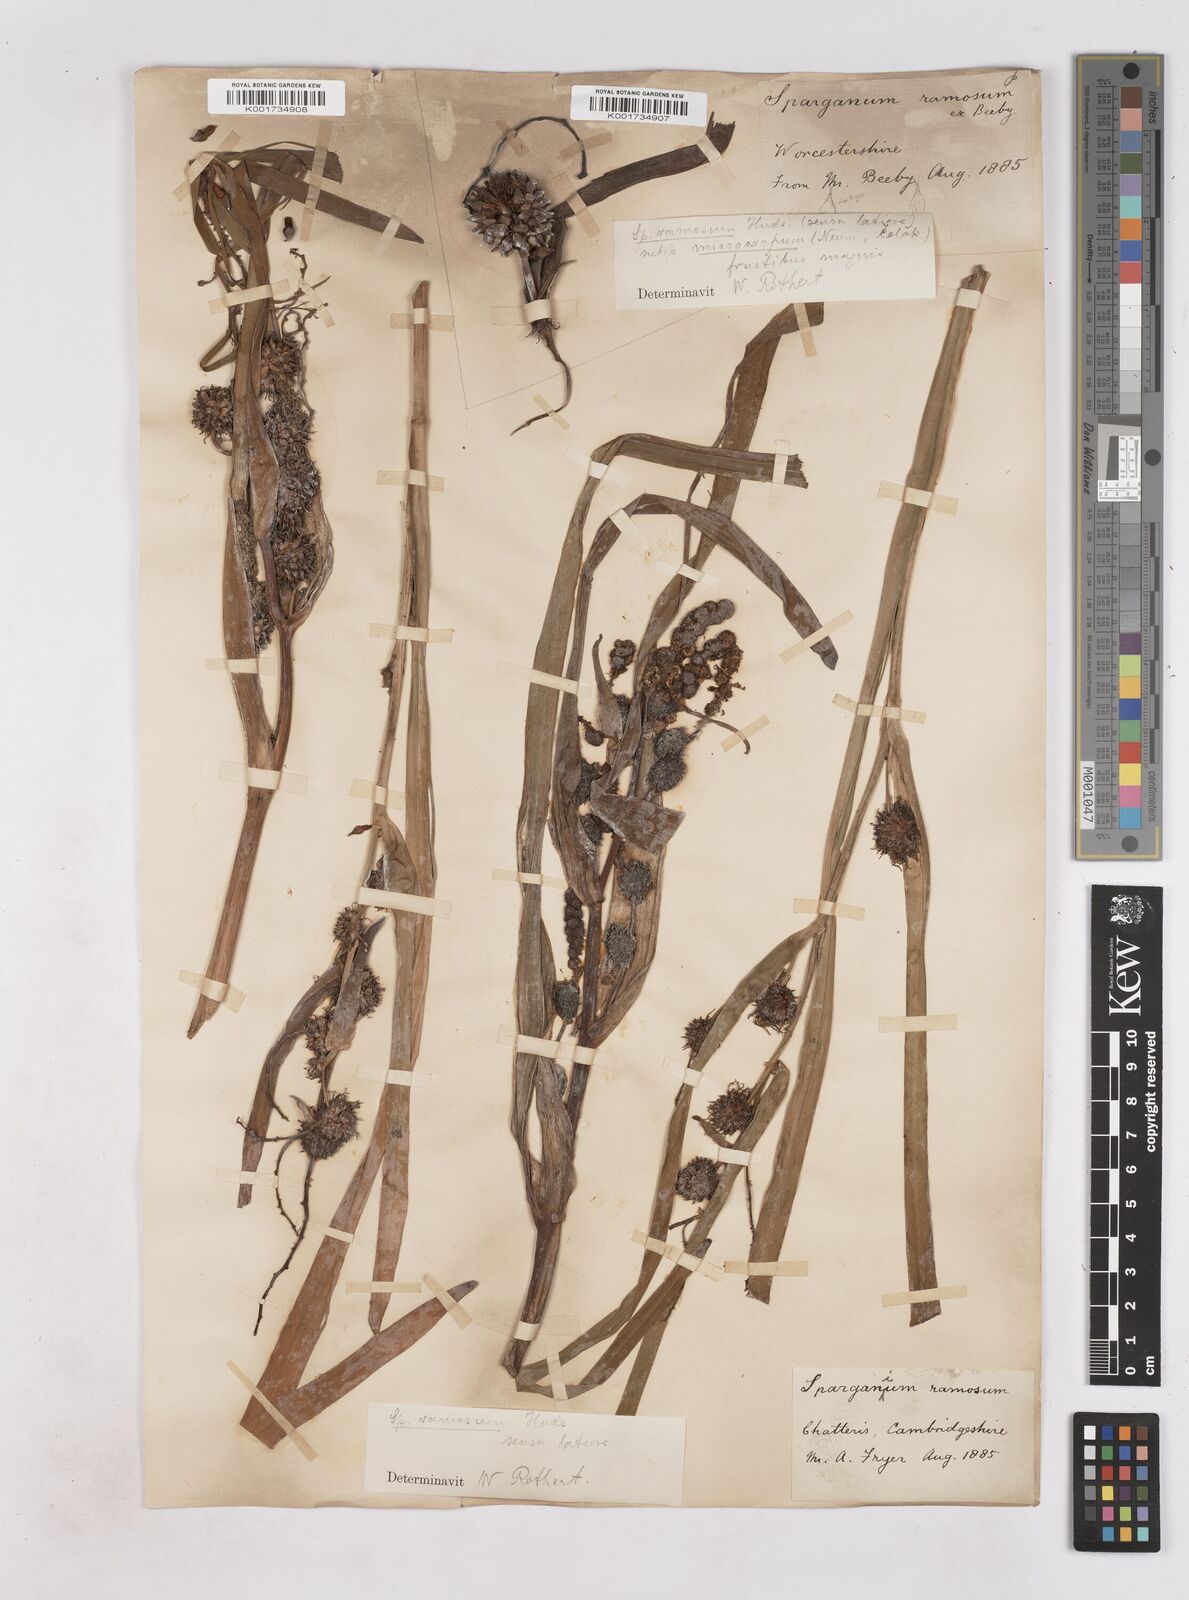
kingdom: Plantae
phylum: Tracheophyta
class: Liliopsida
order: Poales
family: Typhaceae
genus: Sparganium
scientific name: Sparganium erectum
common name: Branched bur-reed
